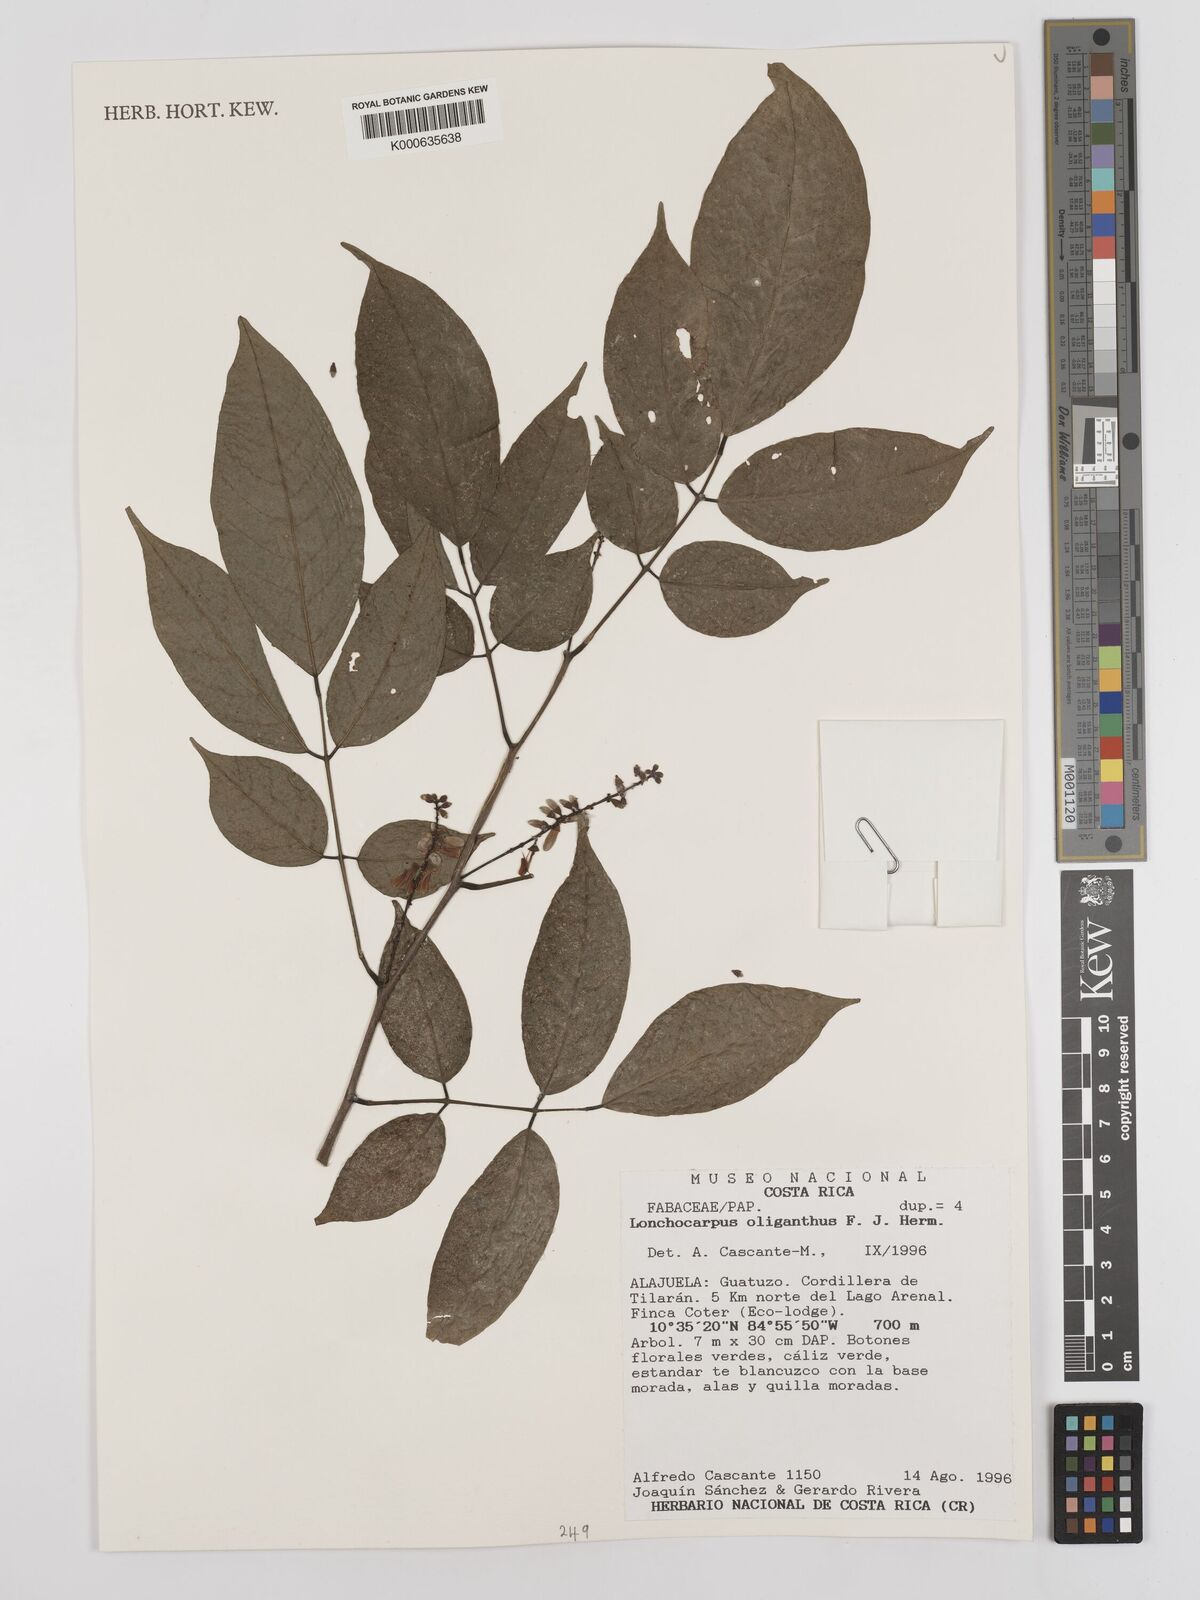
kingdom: Plantae
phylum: Tracheophyta
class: Magnoliopsida
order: Fabales
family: Fabaceae
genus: Lonchocarpus
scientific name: Lonchocarpus oliganthus
